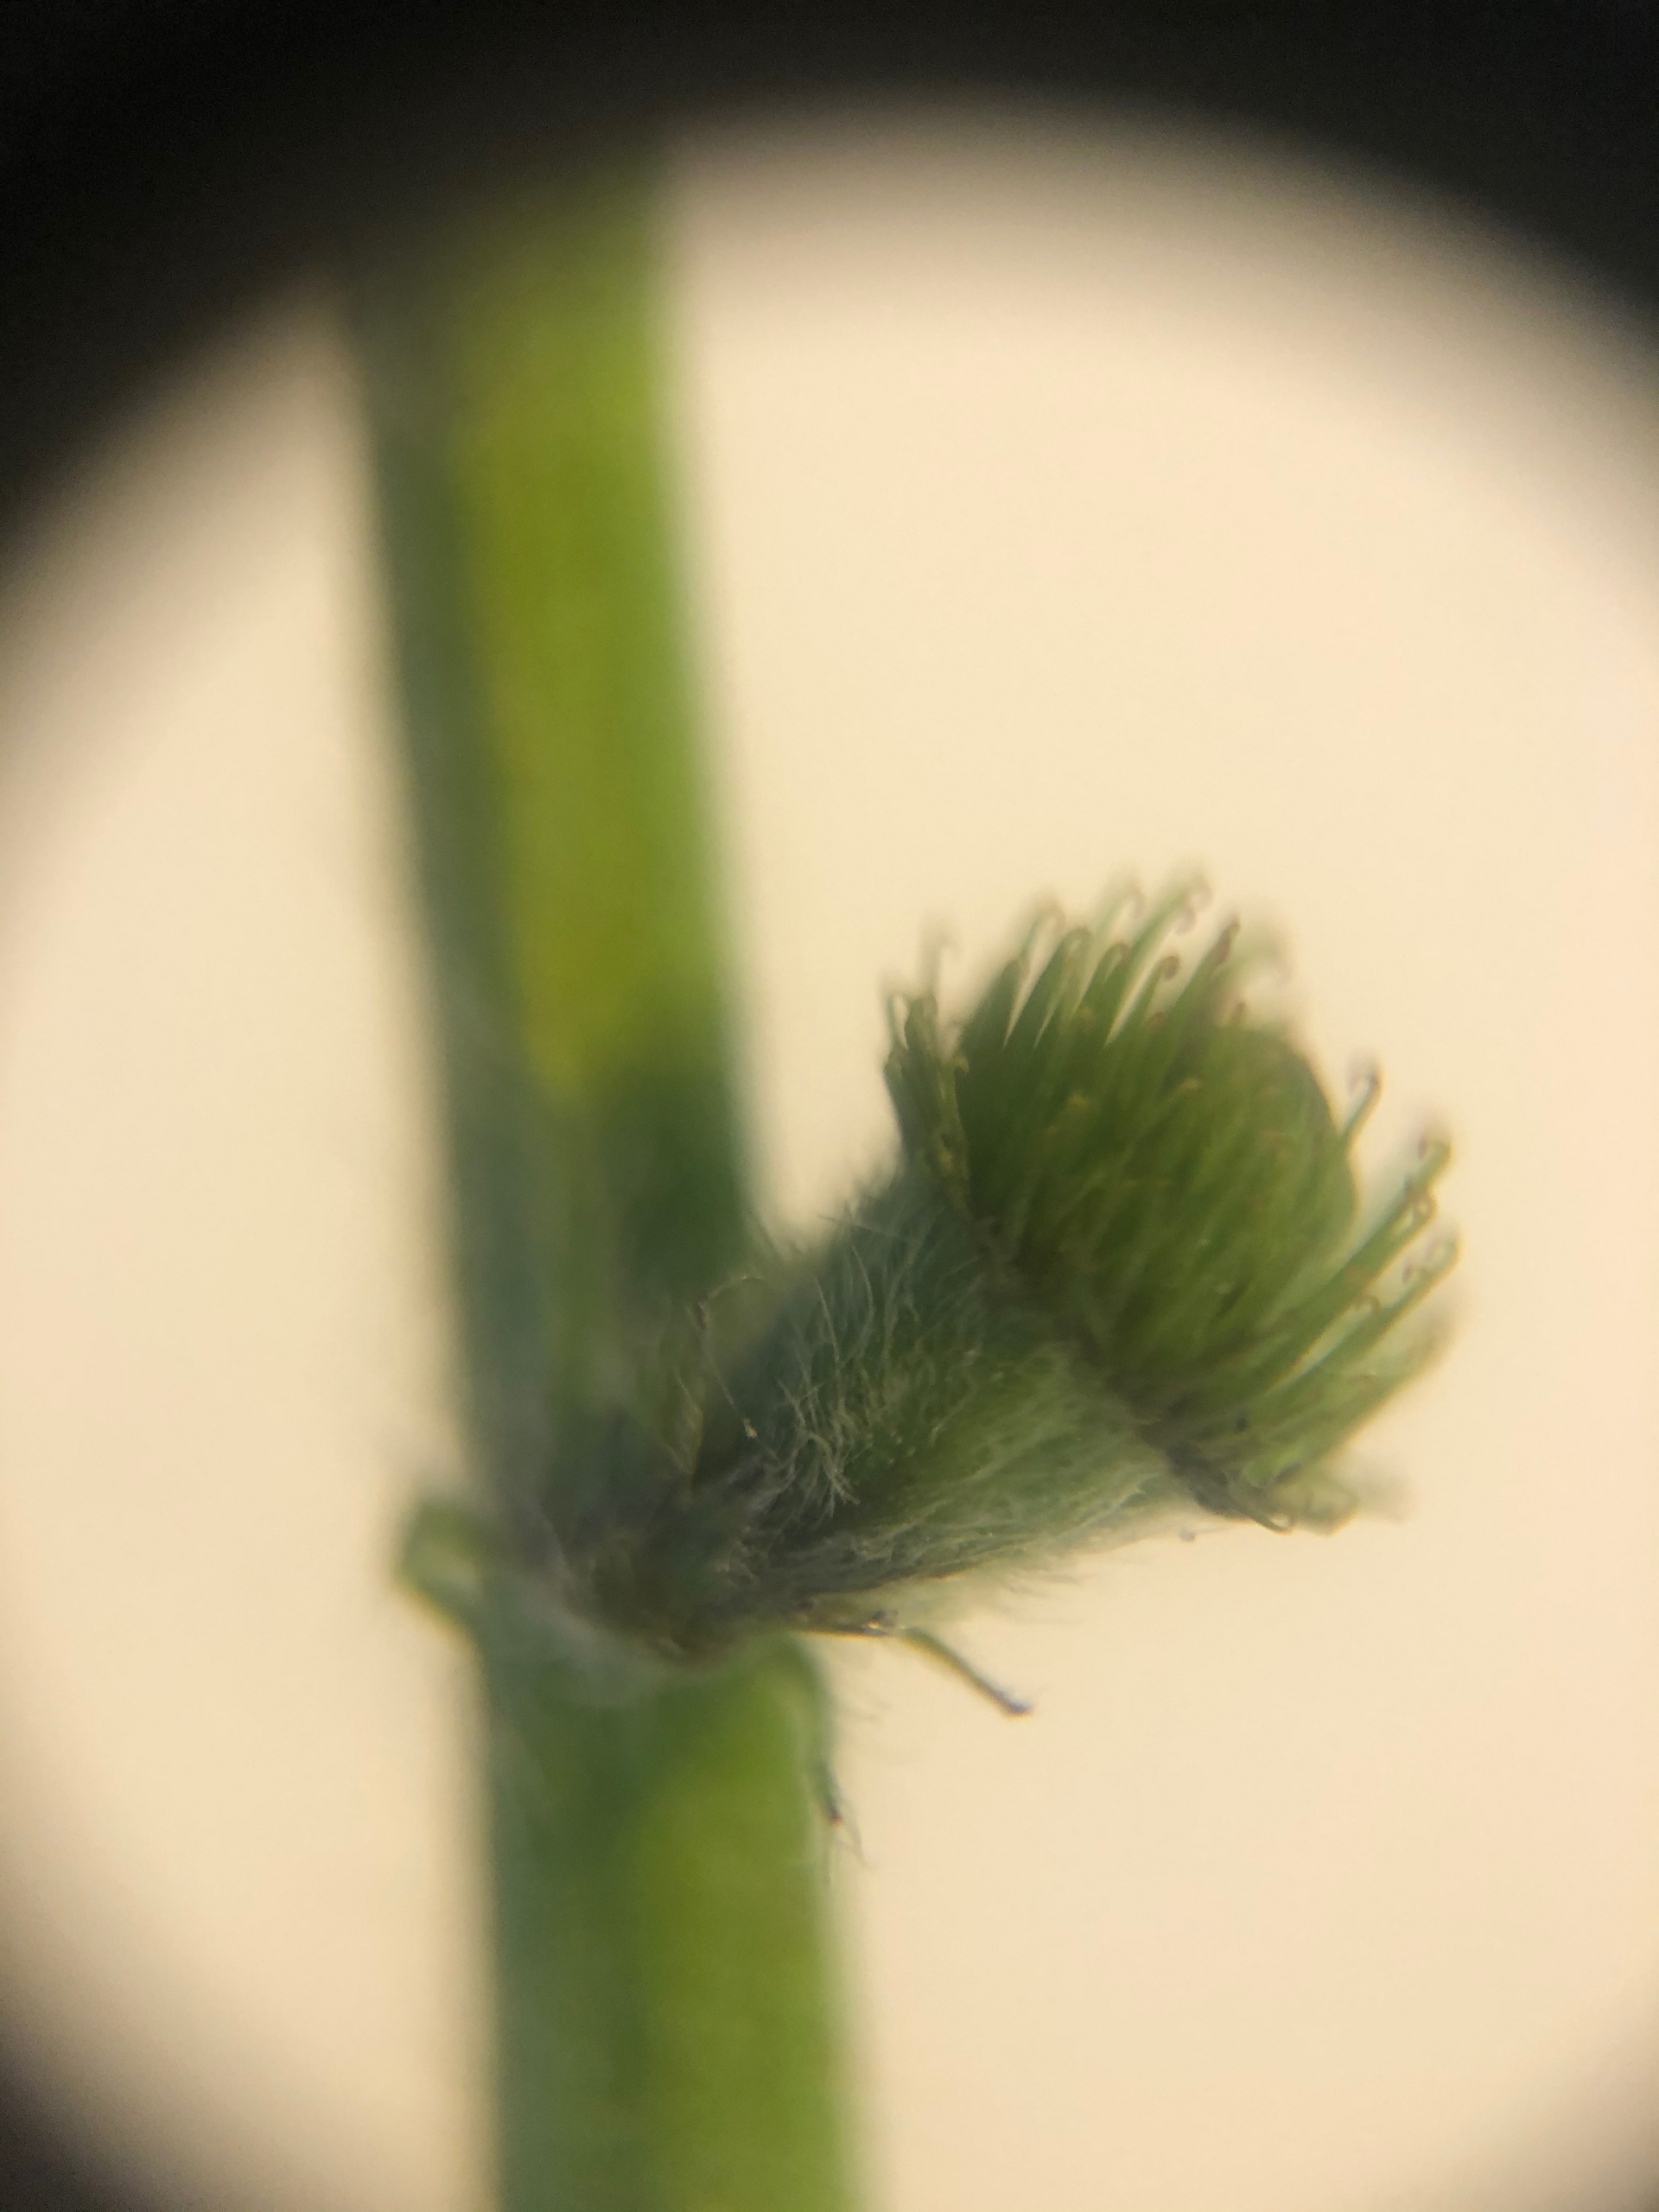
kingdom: Plantae
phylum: Tracheophyta
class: Magnoliopsida
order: Rosales
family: Rosaceae
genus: Agrimonia
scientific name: Agrimonia eupatoria
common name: Almindelig agermåne
